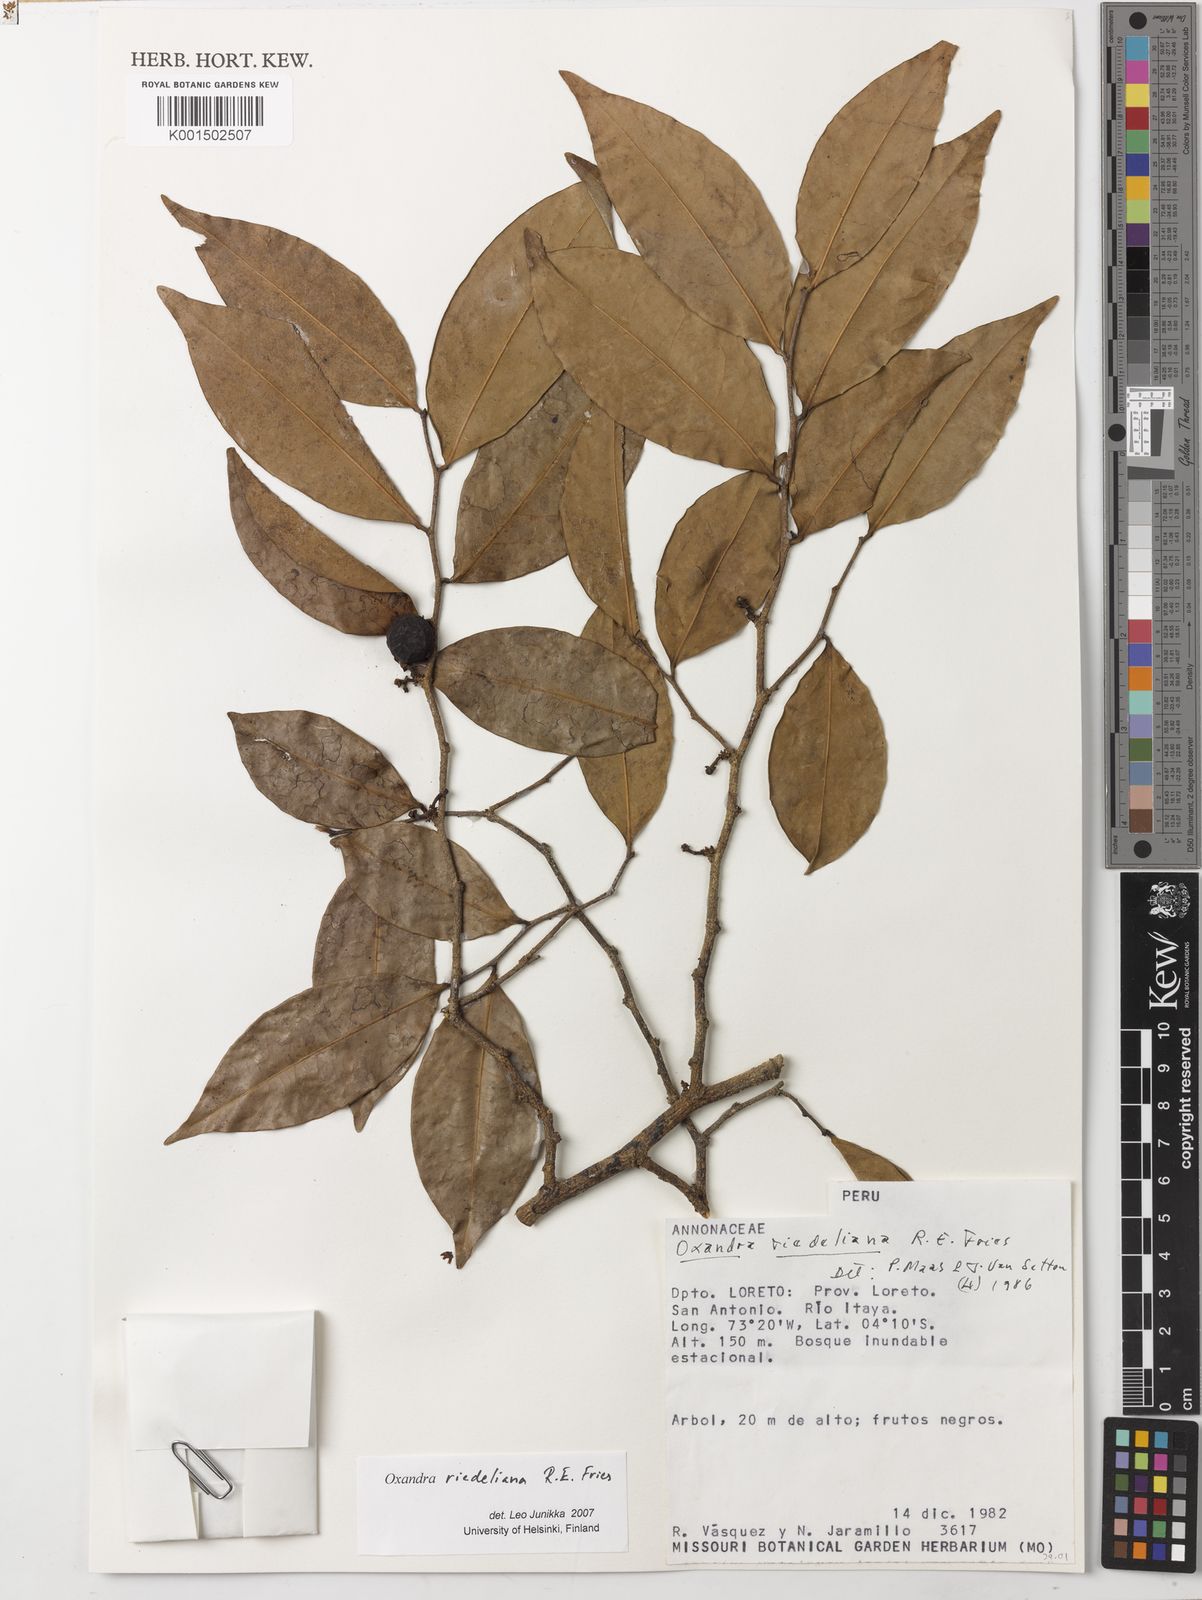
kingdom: Plantae
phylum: Tracheophyta
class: Magnoliopsida
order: Magnoliales
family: Annonaceae
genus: Oxandra
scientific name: Oxandra riedeliana
